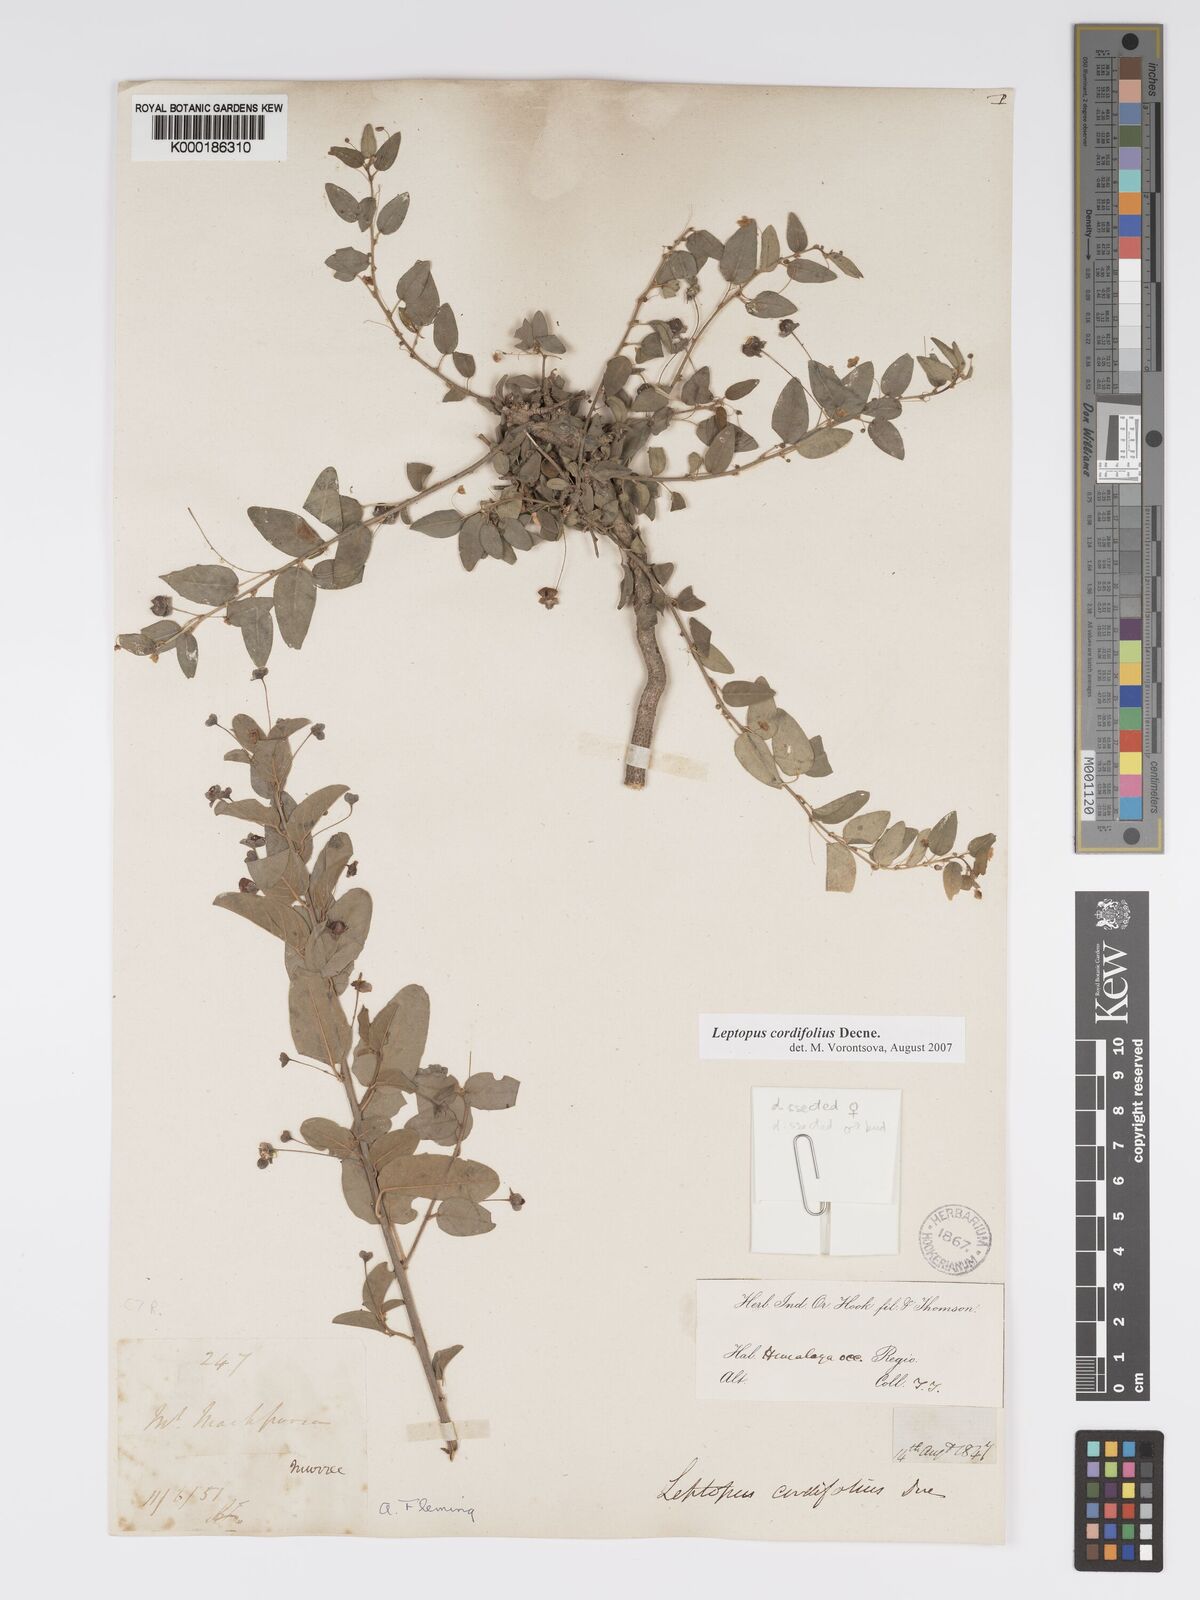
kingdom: Plantae
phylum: Tracheophyta
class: Magnoliopsida
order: Malpighiales
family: Phyllanthaceae
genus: Leptopus
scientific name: Leptopus cordifolius
